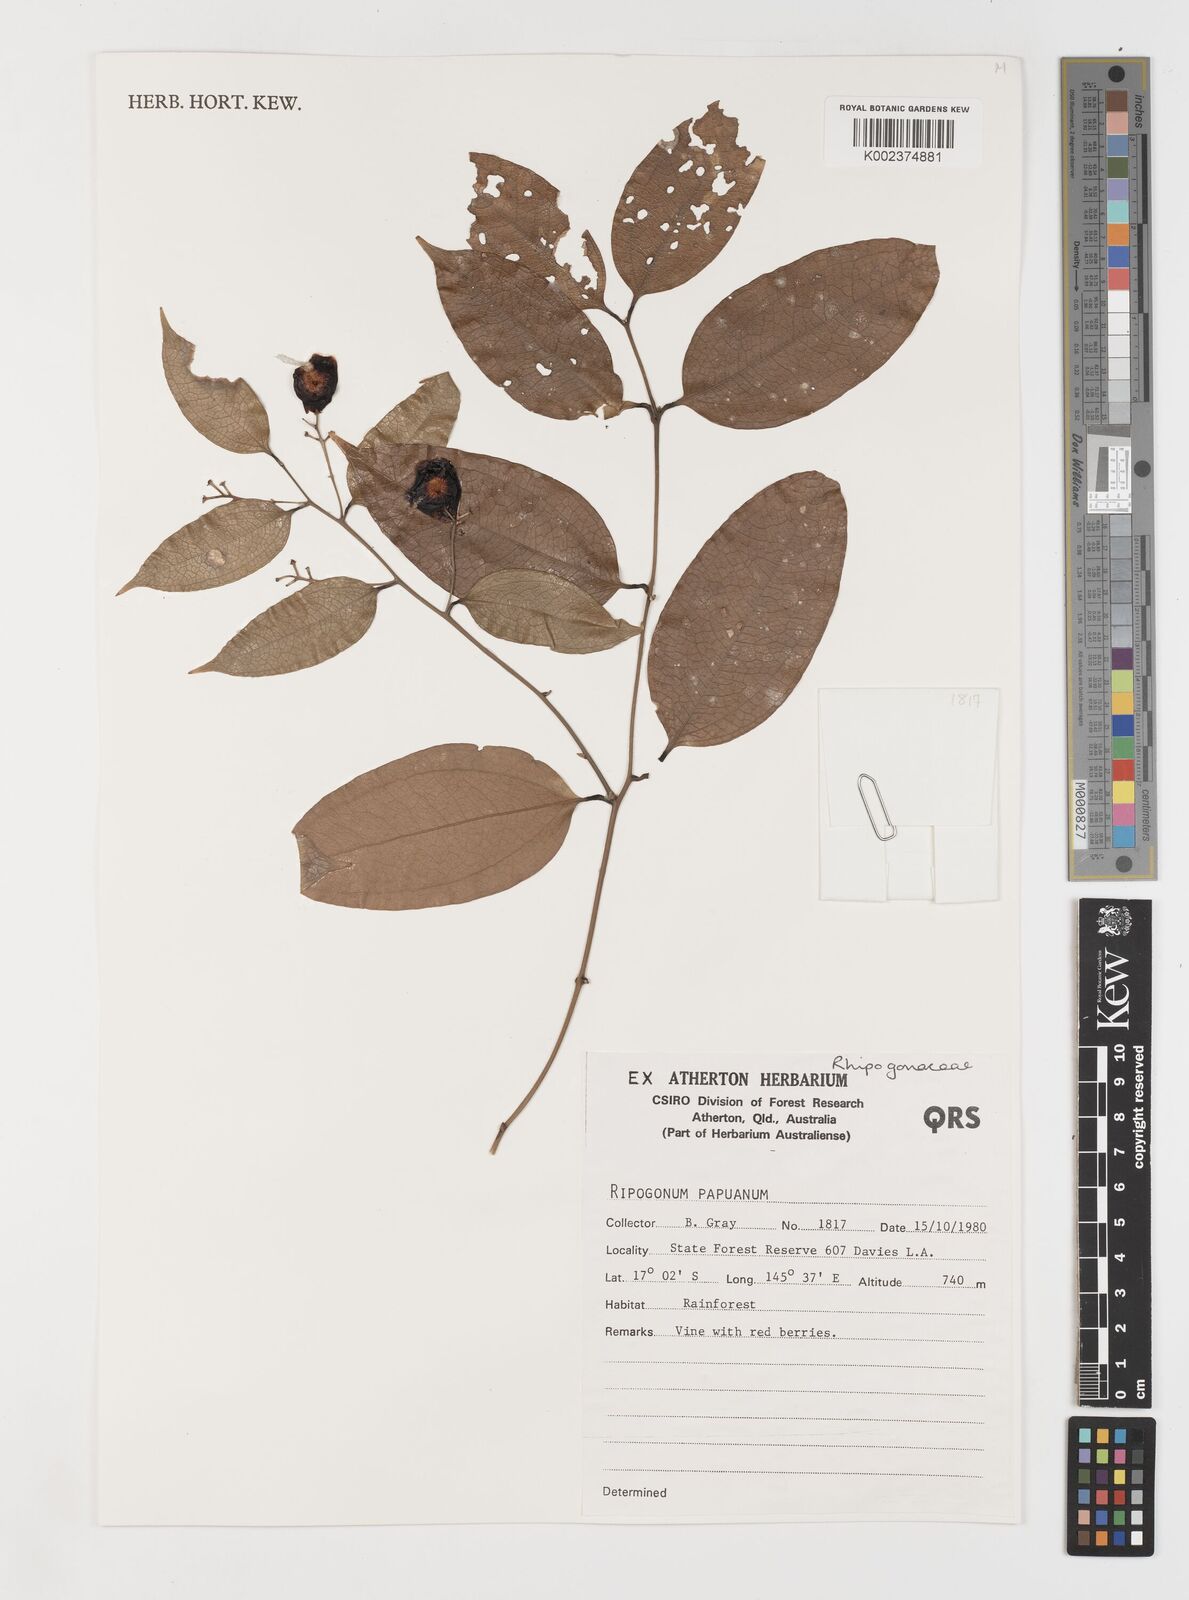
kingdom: Plantae
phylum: Tracheophyta
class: Liliopsida
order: Liliales
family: Ripogonaceae
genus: Ripogonum
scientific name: Ripogonum album
